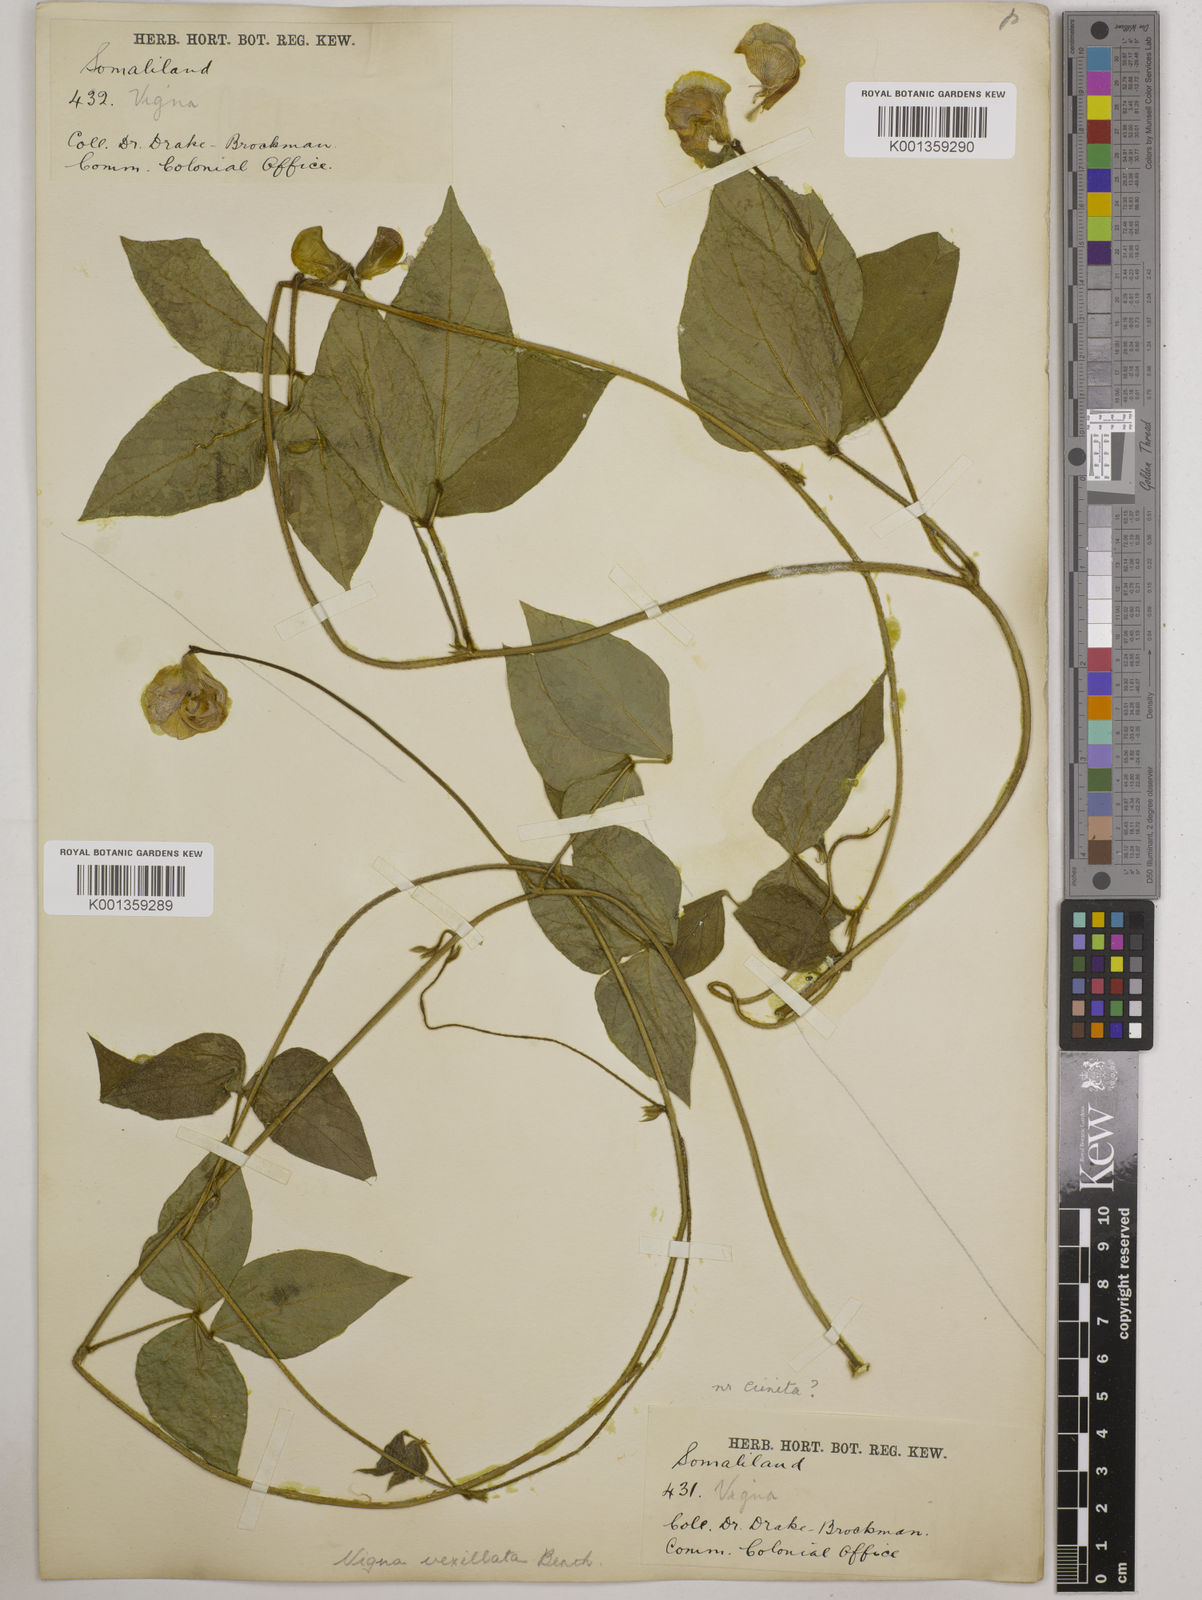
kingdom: Plantae
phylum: Tracheophyta
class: Magnoliopsida
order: Fabales
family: Fabaceae
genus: Vigna
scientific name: Vigna vexillata
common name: Zombi pea
